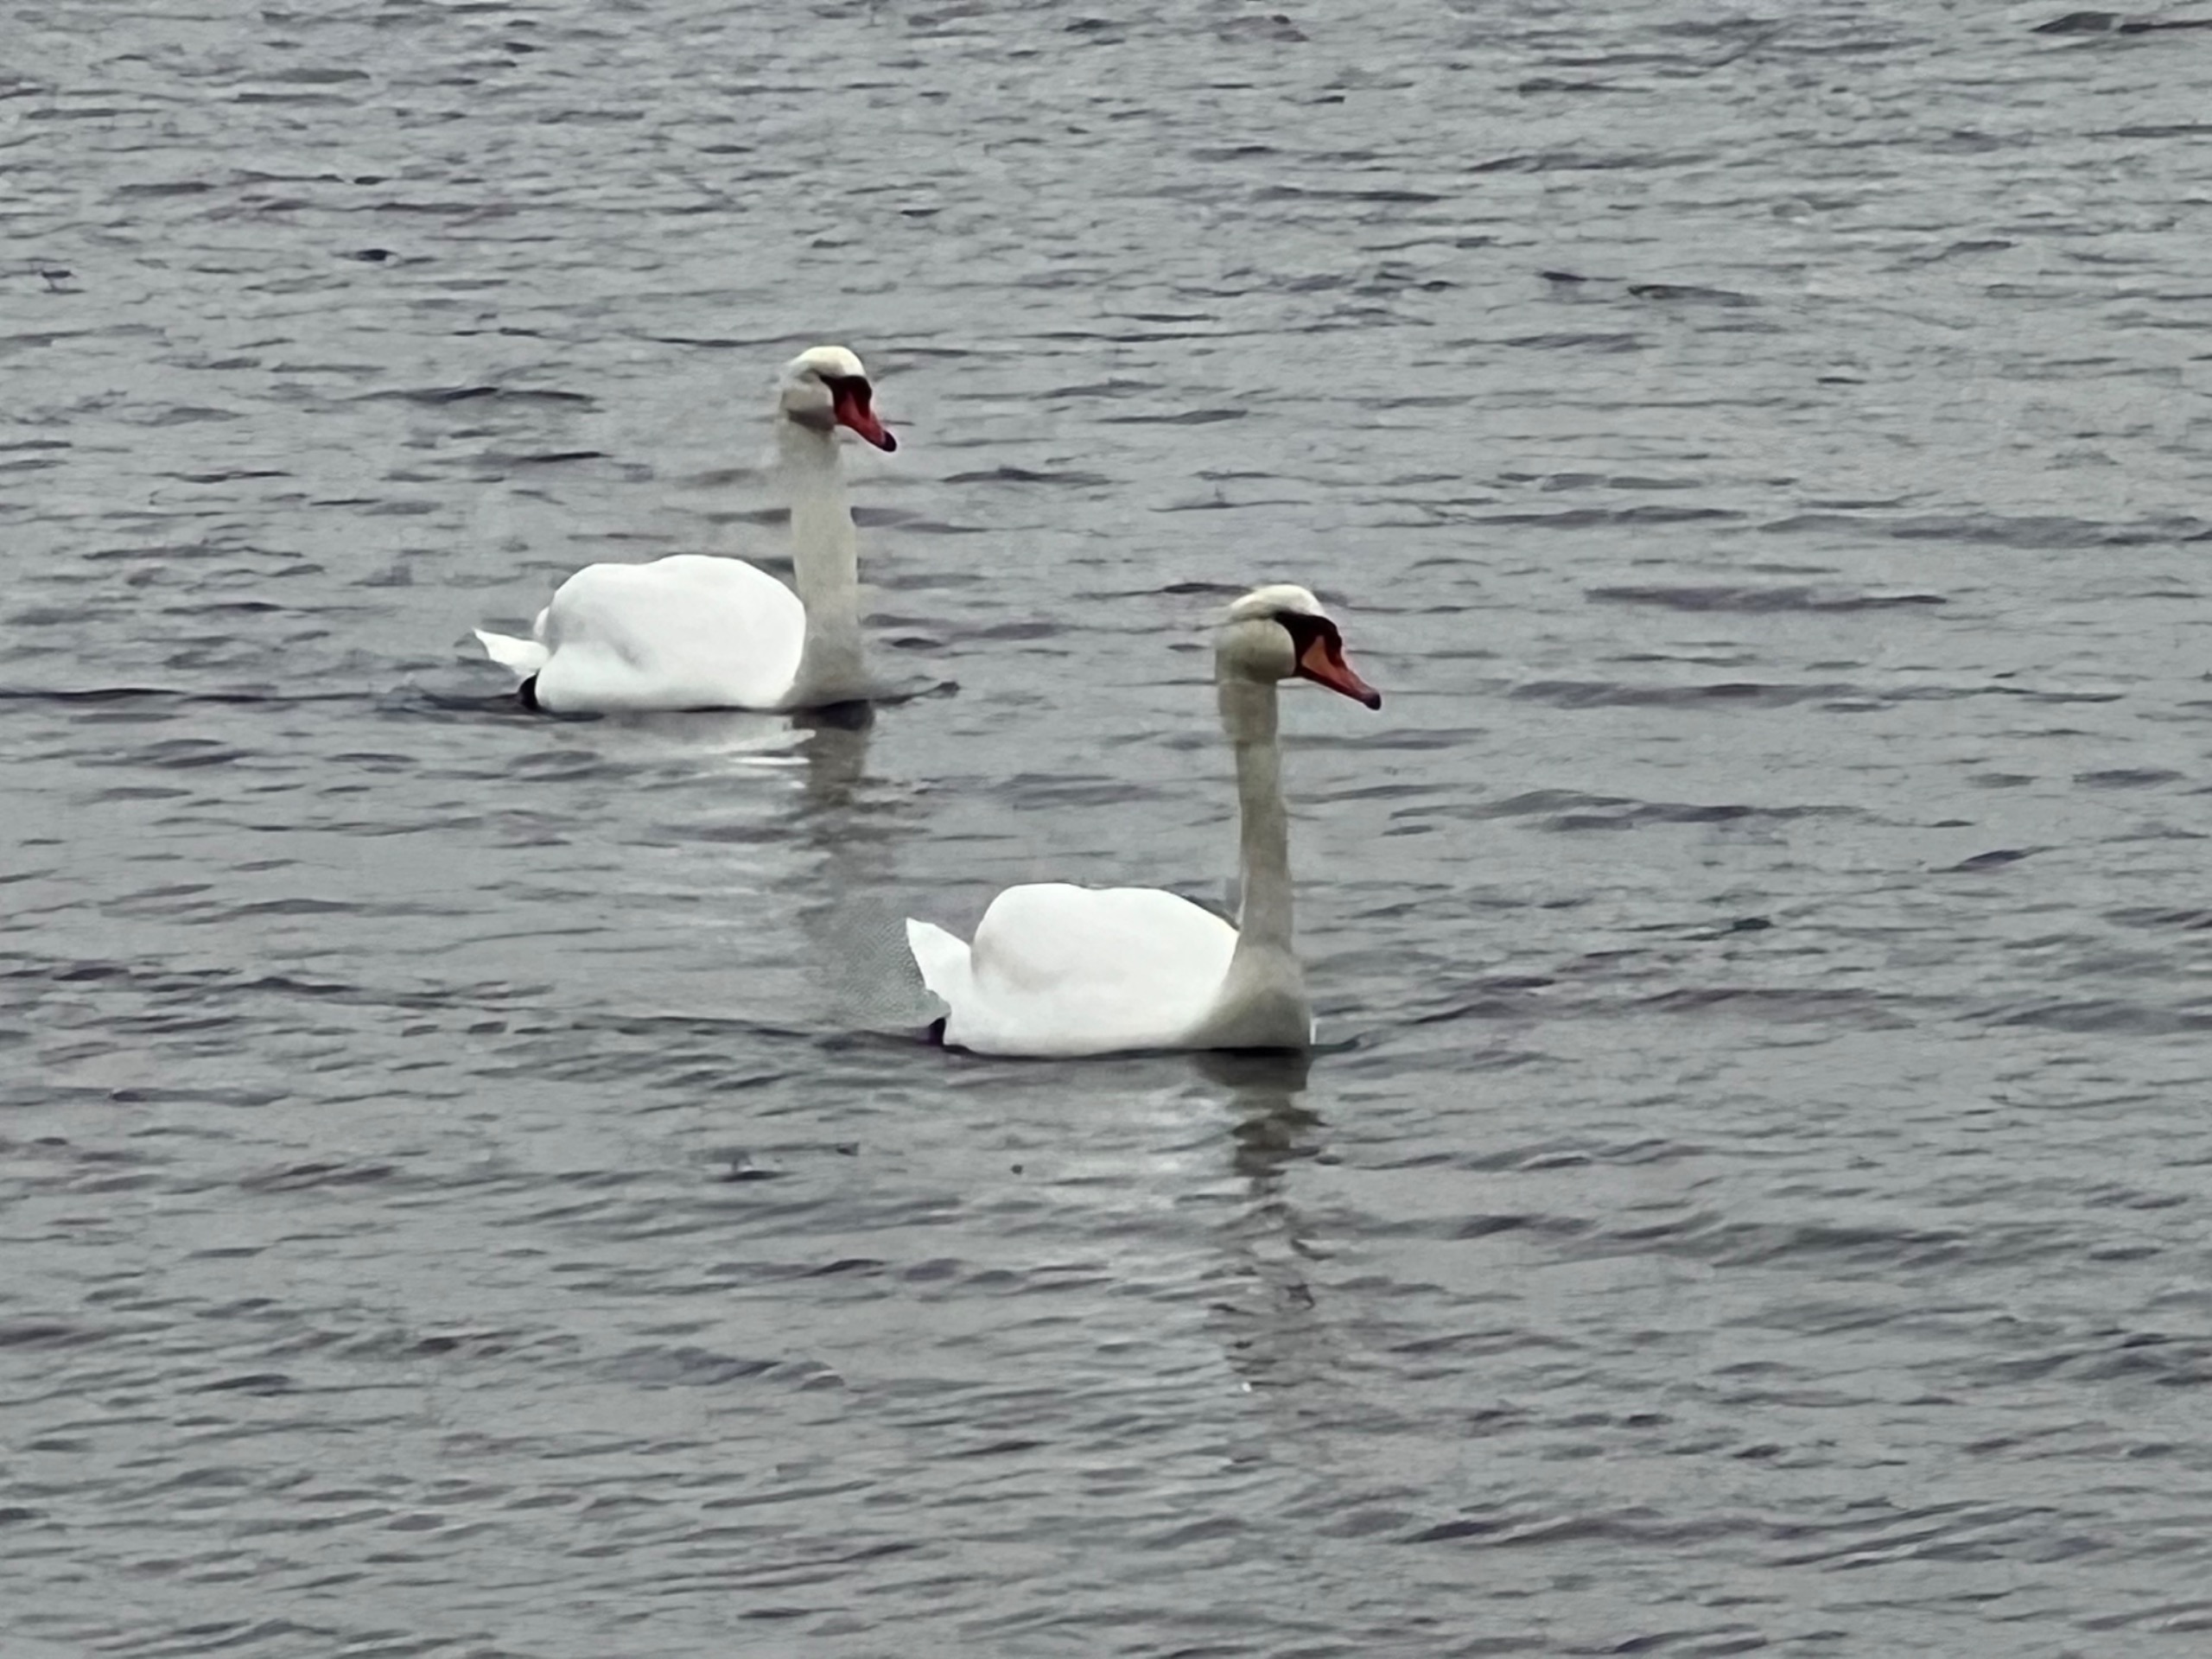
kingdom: Animalia
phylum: Chordata
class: Aves
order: Anseriformes
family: Anatidae
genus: Cygnus
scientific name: Cygnus olor
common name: Knopsvane
